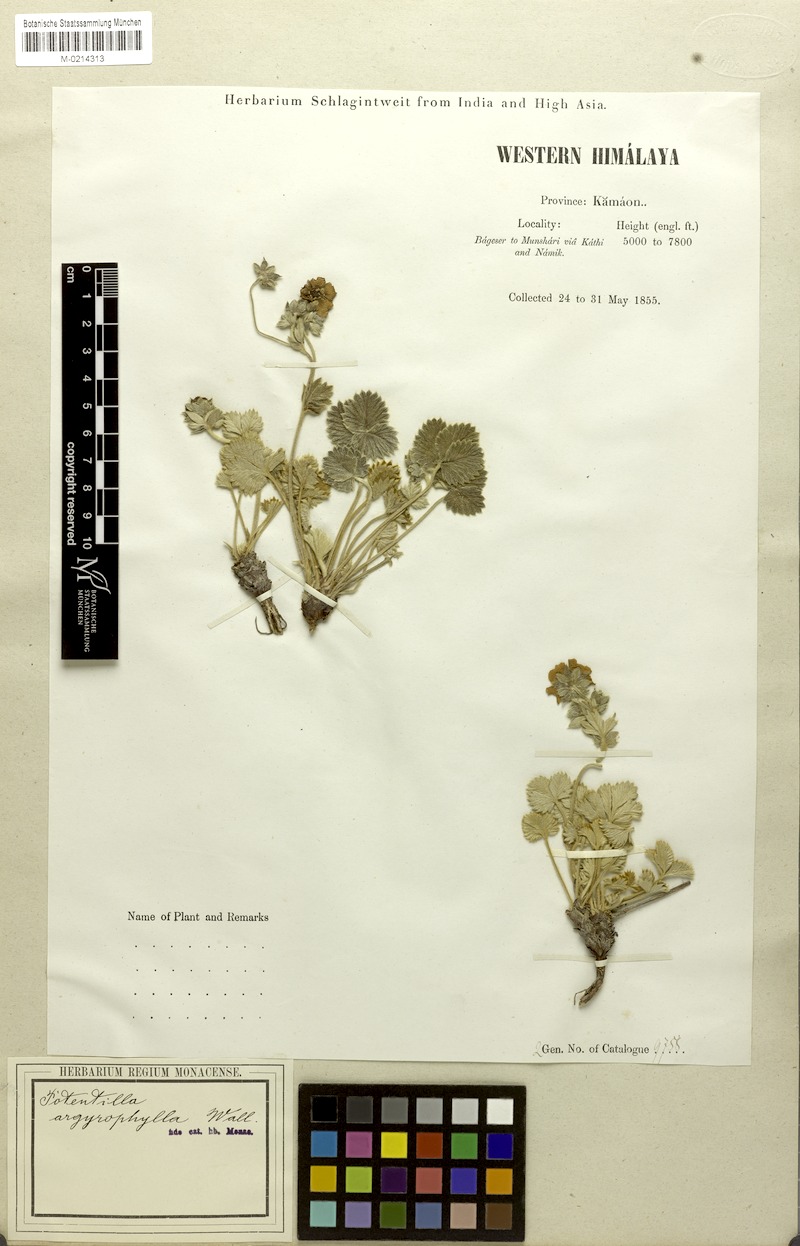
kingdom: Plantae
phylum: Tracheophyta
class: Magnoliopsida
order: Rosales
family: Rosaceae
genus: Potentilla
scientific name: Potentilla cathaclines
